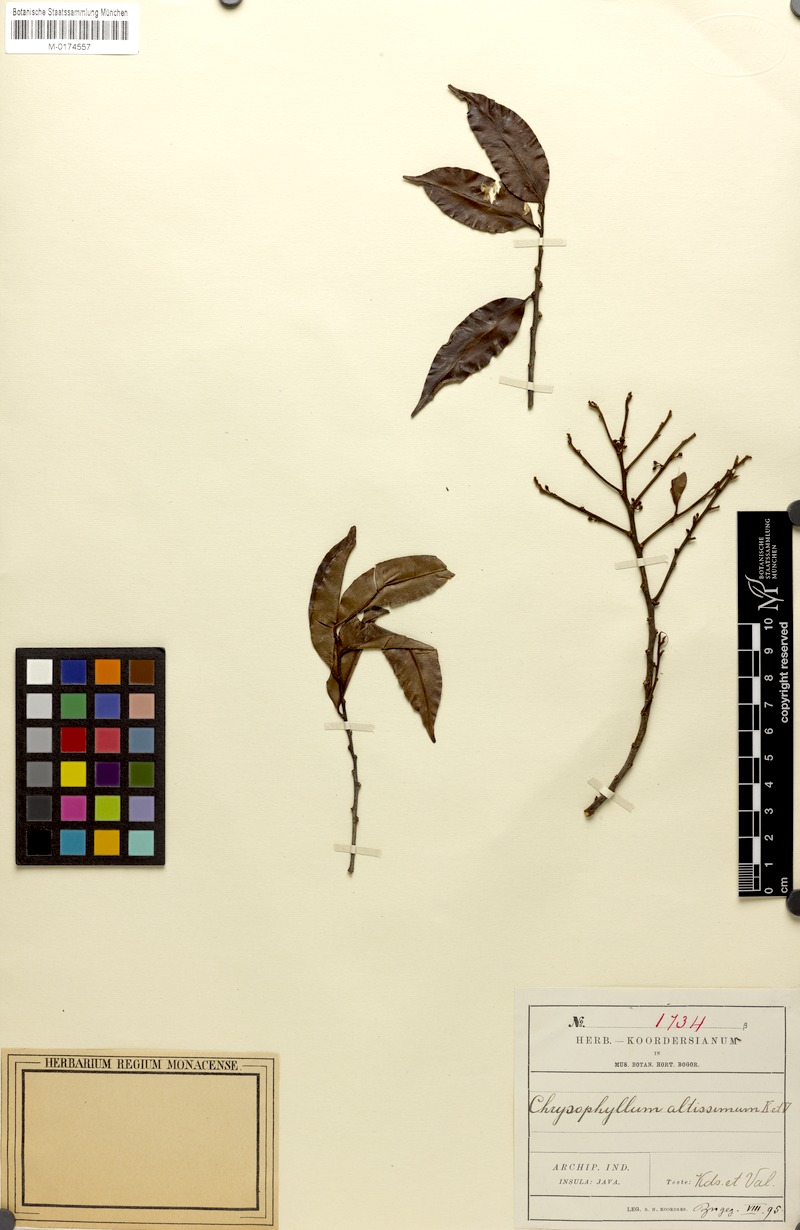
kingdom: Plantae
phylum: Tracheophyta
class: Magnoliopsida
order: Ericales
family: Sapotaceae
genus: Chrysophyllum
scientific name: Chrysophyllum
